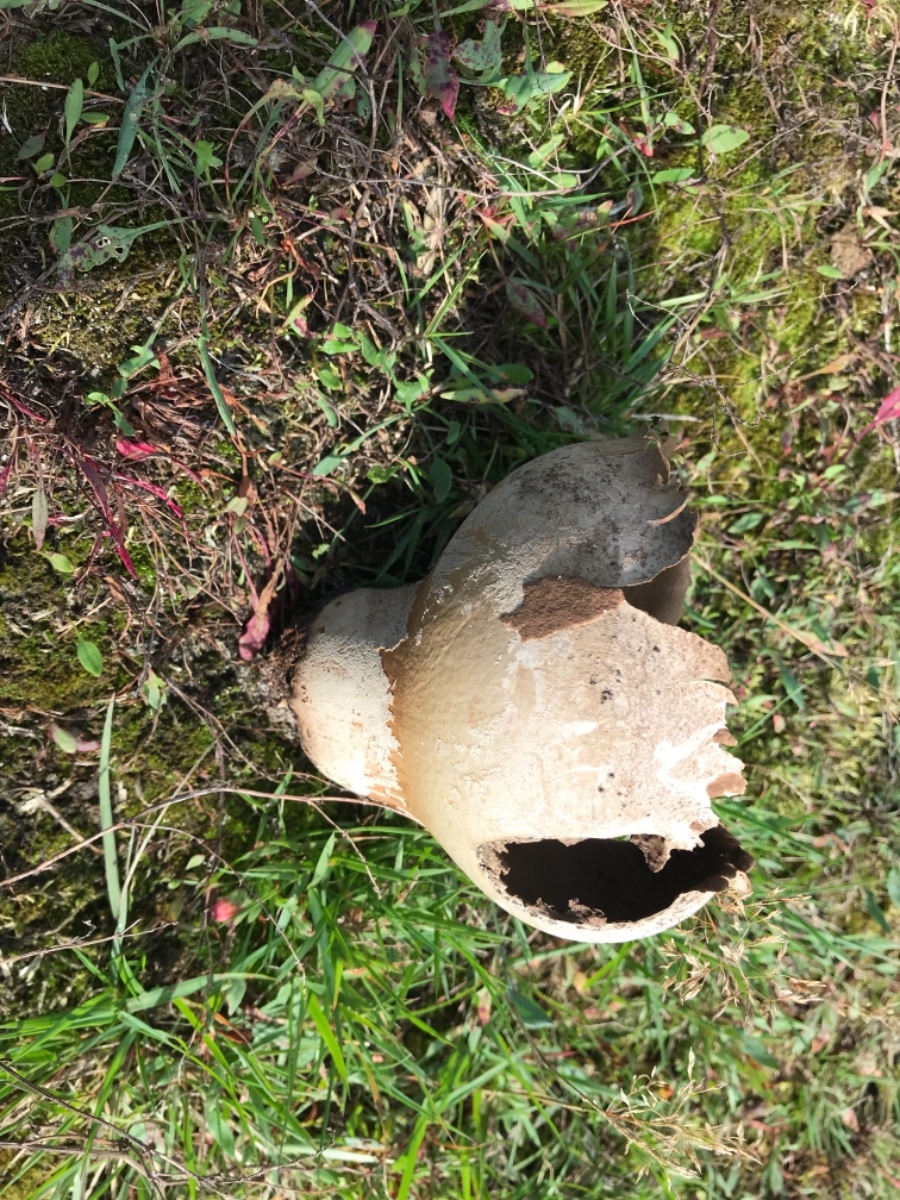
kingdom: Fungi
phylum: Basidiomycota
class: Agaricomycetes
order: Agaricales
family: Lycoperdaceae
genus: Bovistella
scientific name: Bovistella utriformis
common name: skællet støvbold
